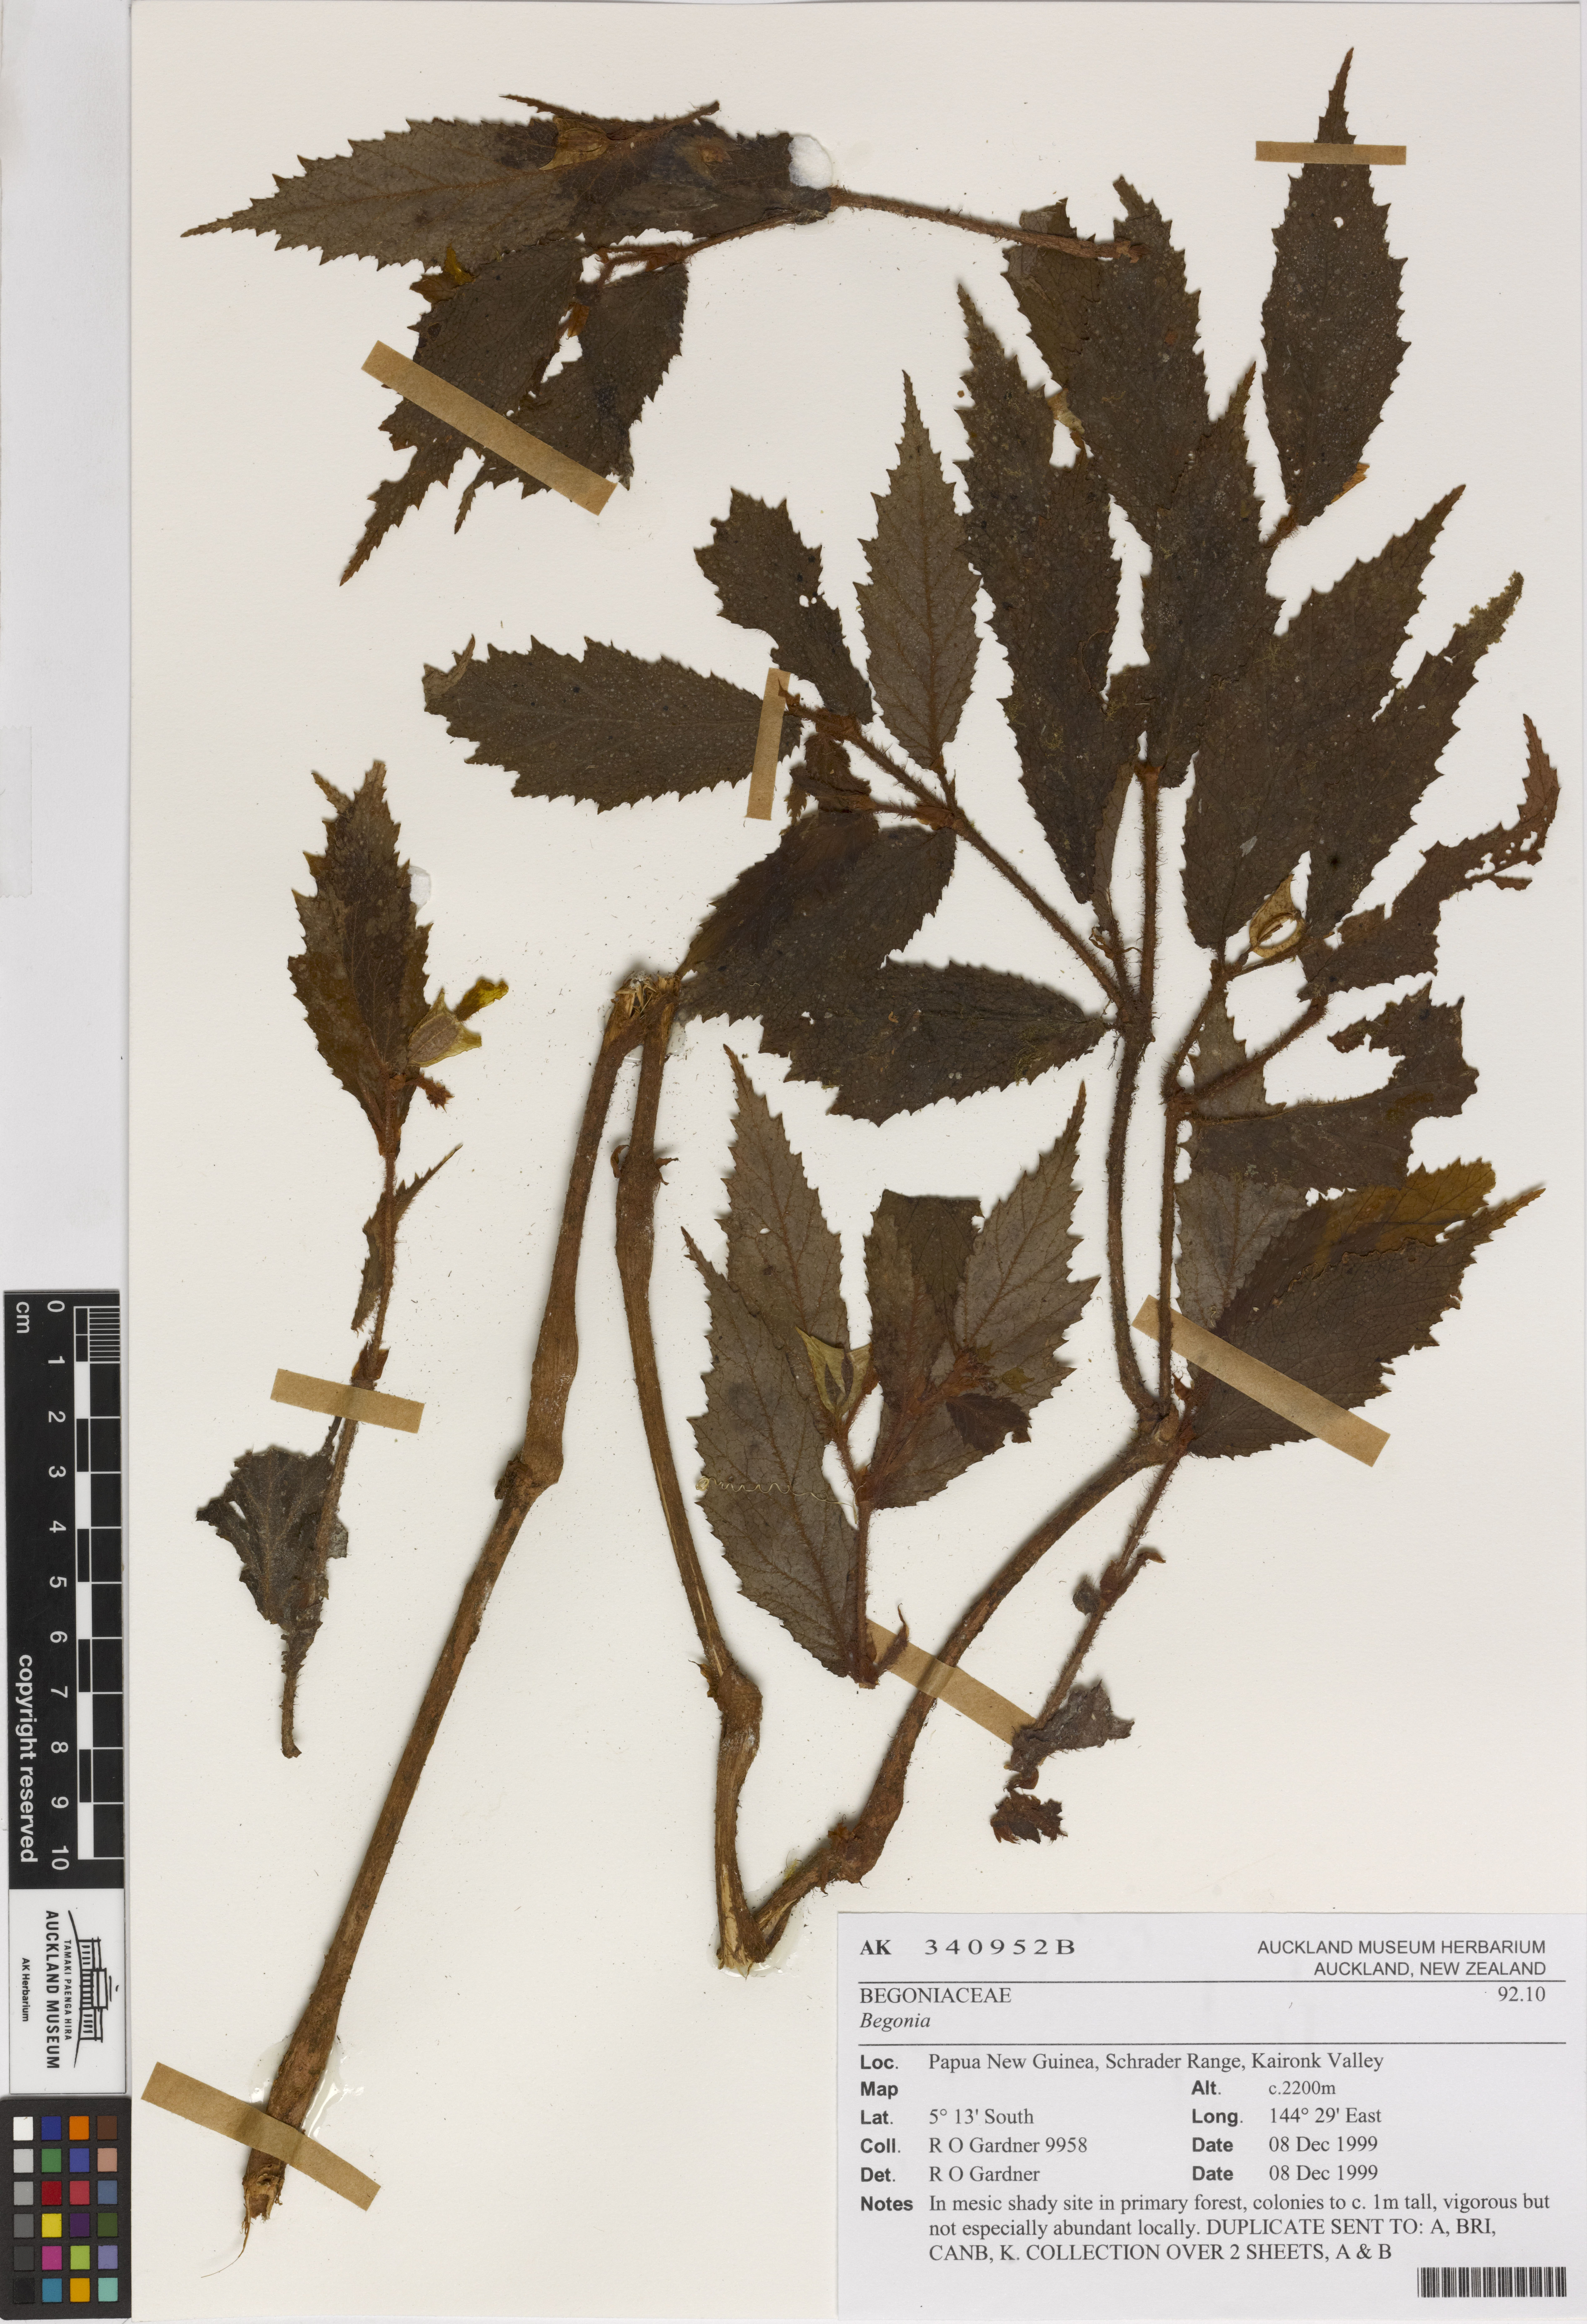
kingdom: Plantae
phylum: Tracheophyta
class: Magnoliopsida
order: Cucurbitales
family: Begoniaceae
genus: Begonia
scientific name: Begonia
